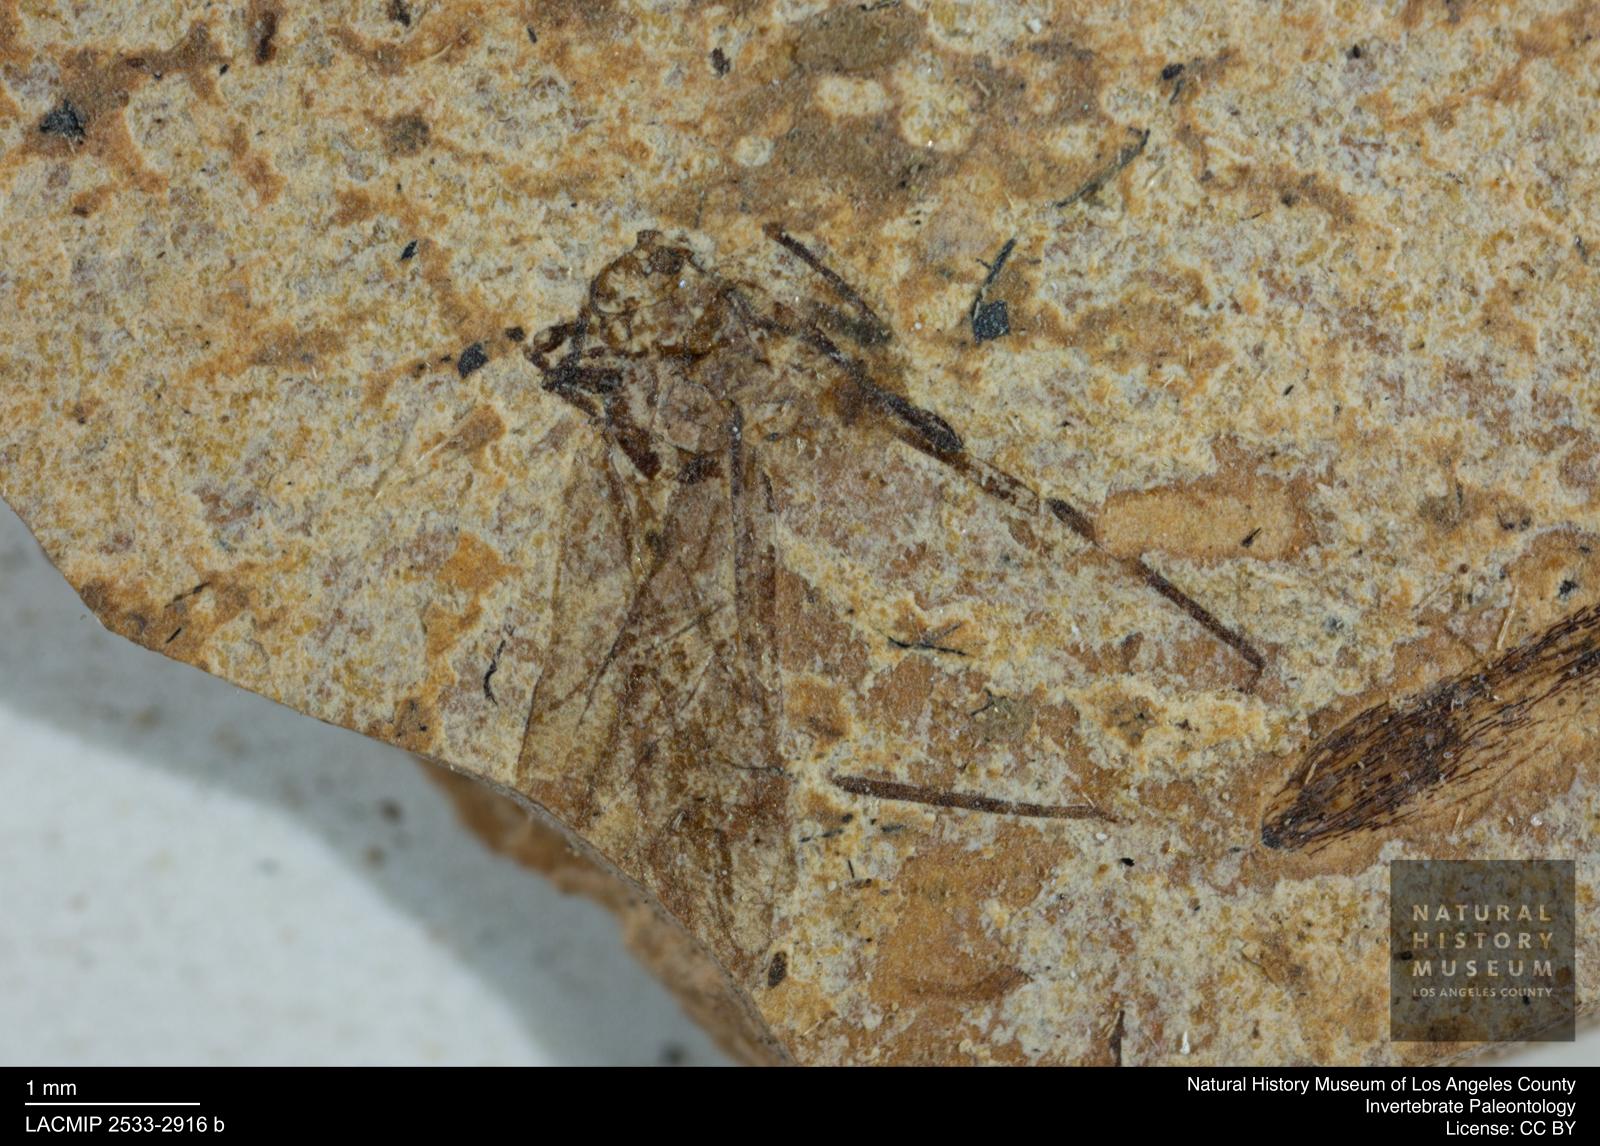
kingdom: Animalia
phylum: Arthropoda
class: Insecta
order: Hemiptera
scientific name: Hemiptera
